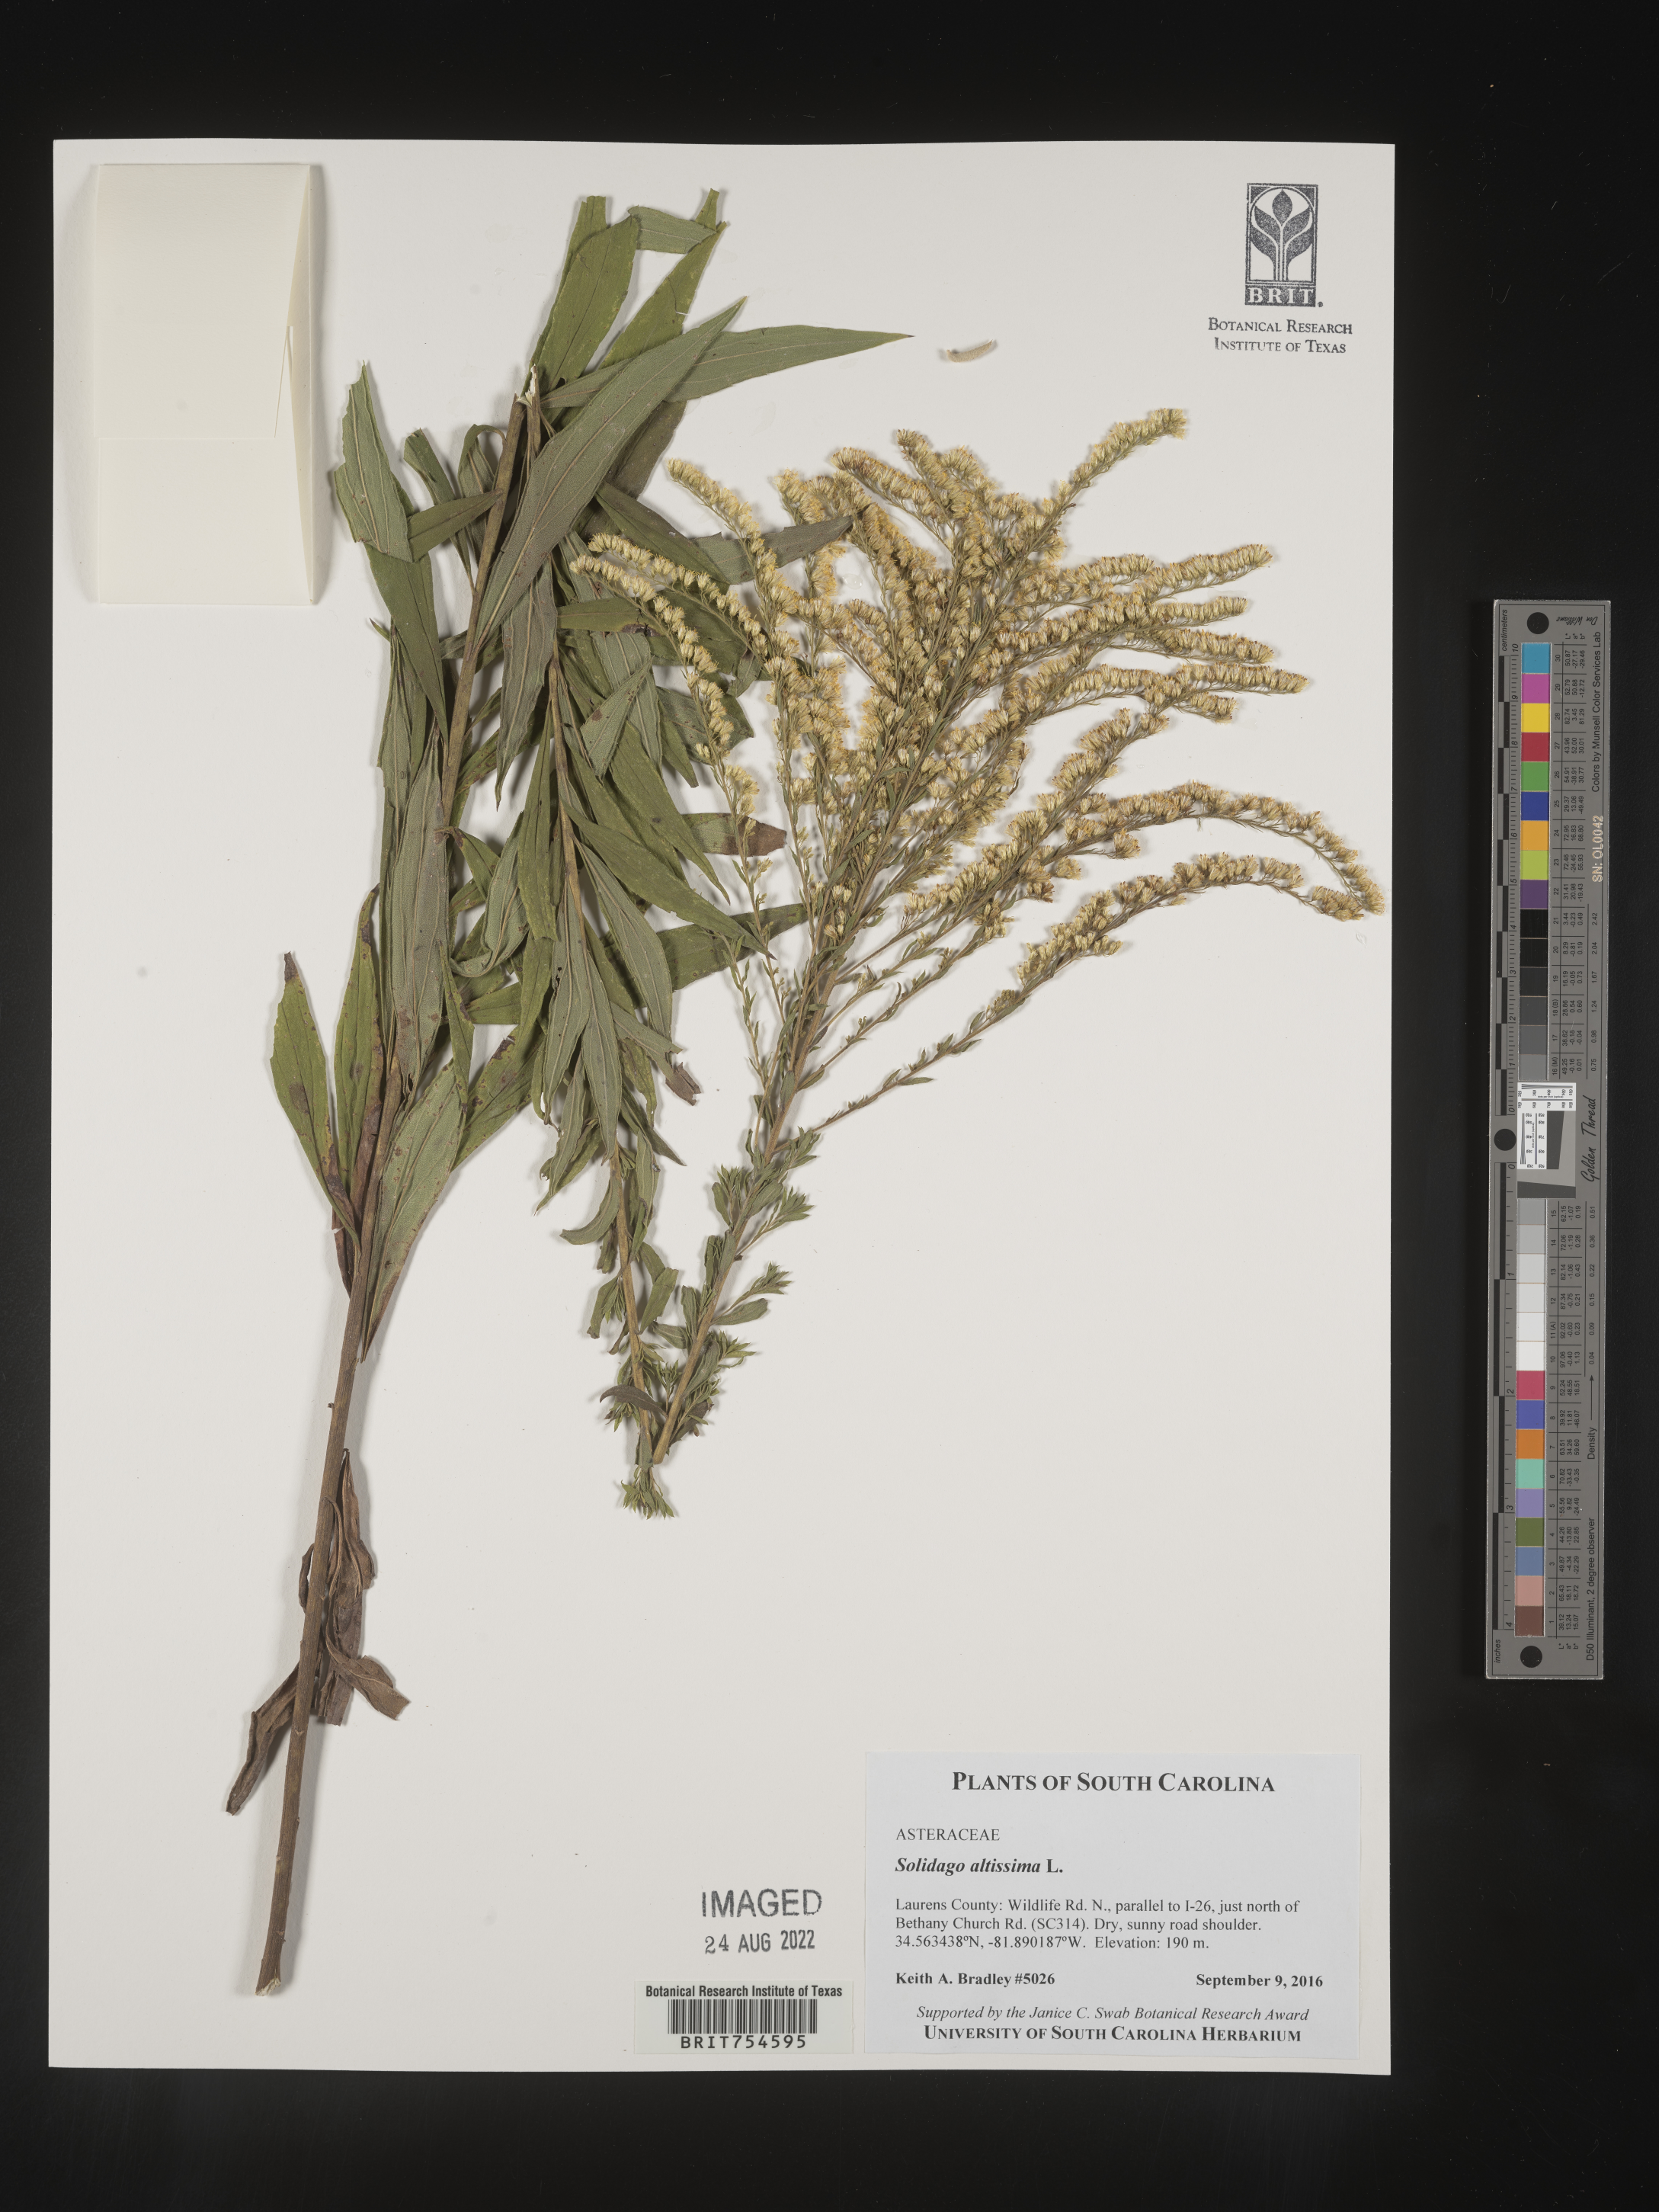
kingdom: Plantae
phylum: Tracheophyta
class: Magnoliopsida
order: Asterales
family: Asteraceae
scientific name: Asteraceae
